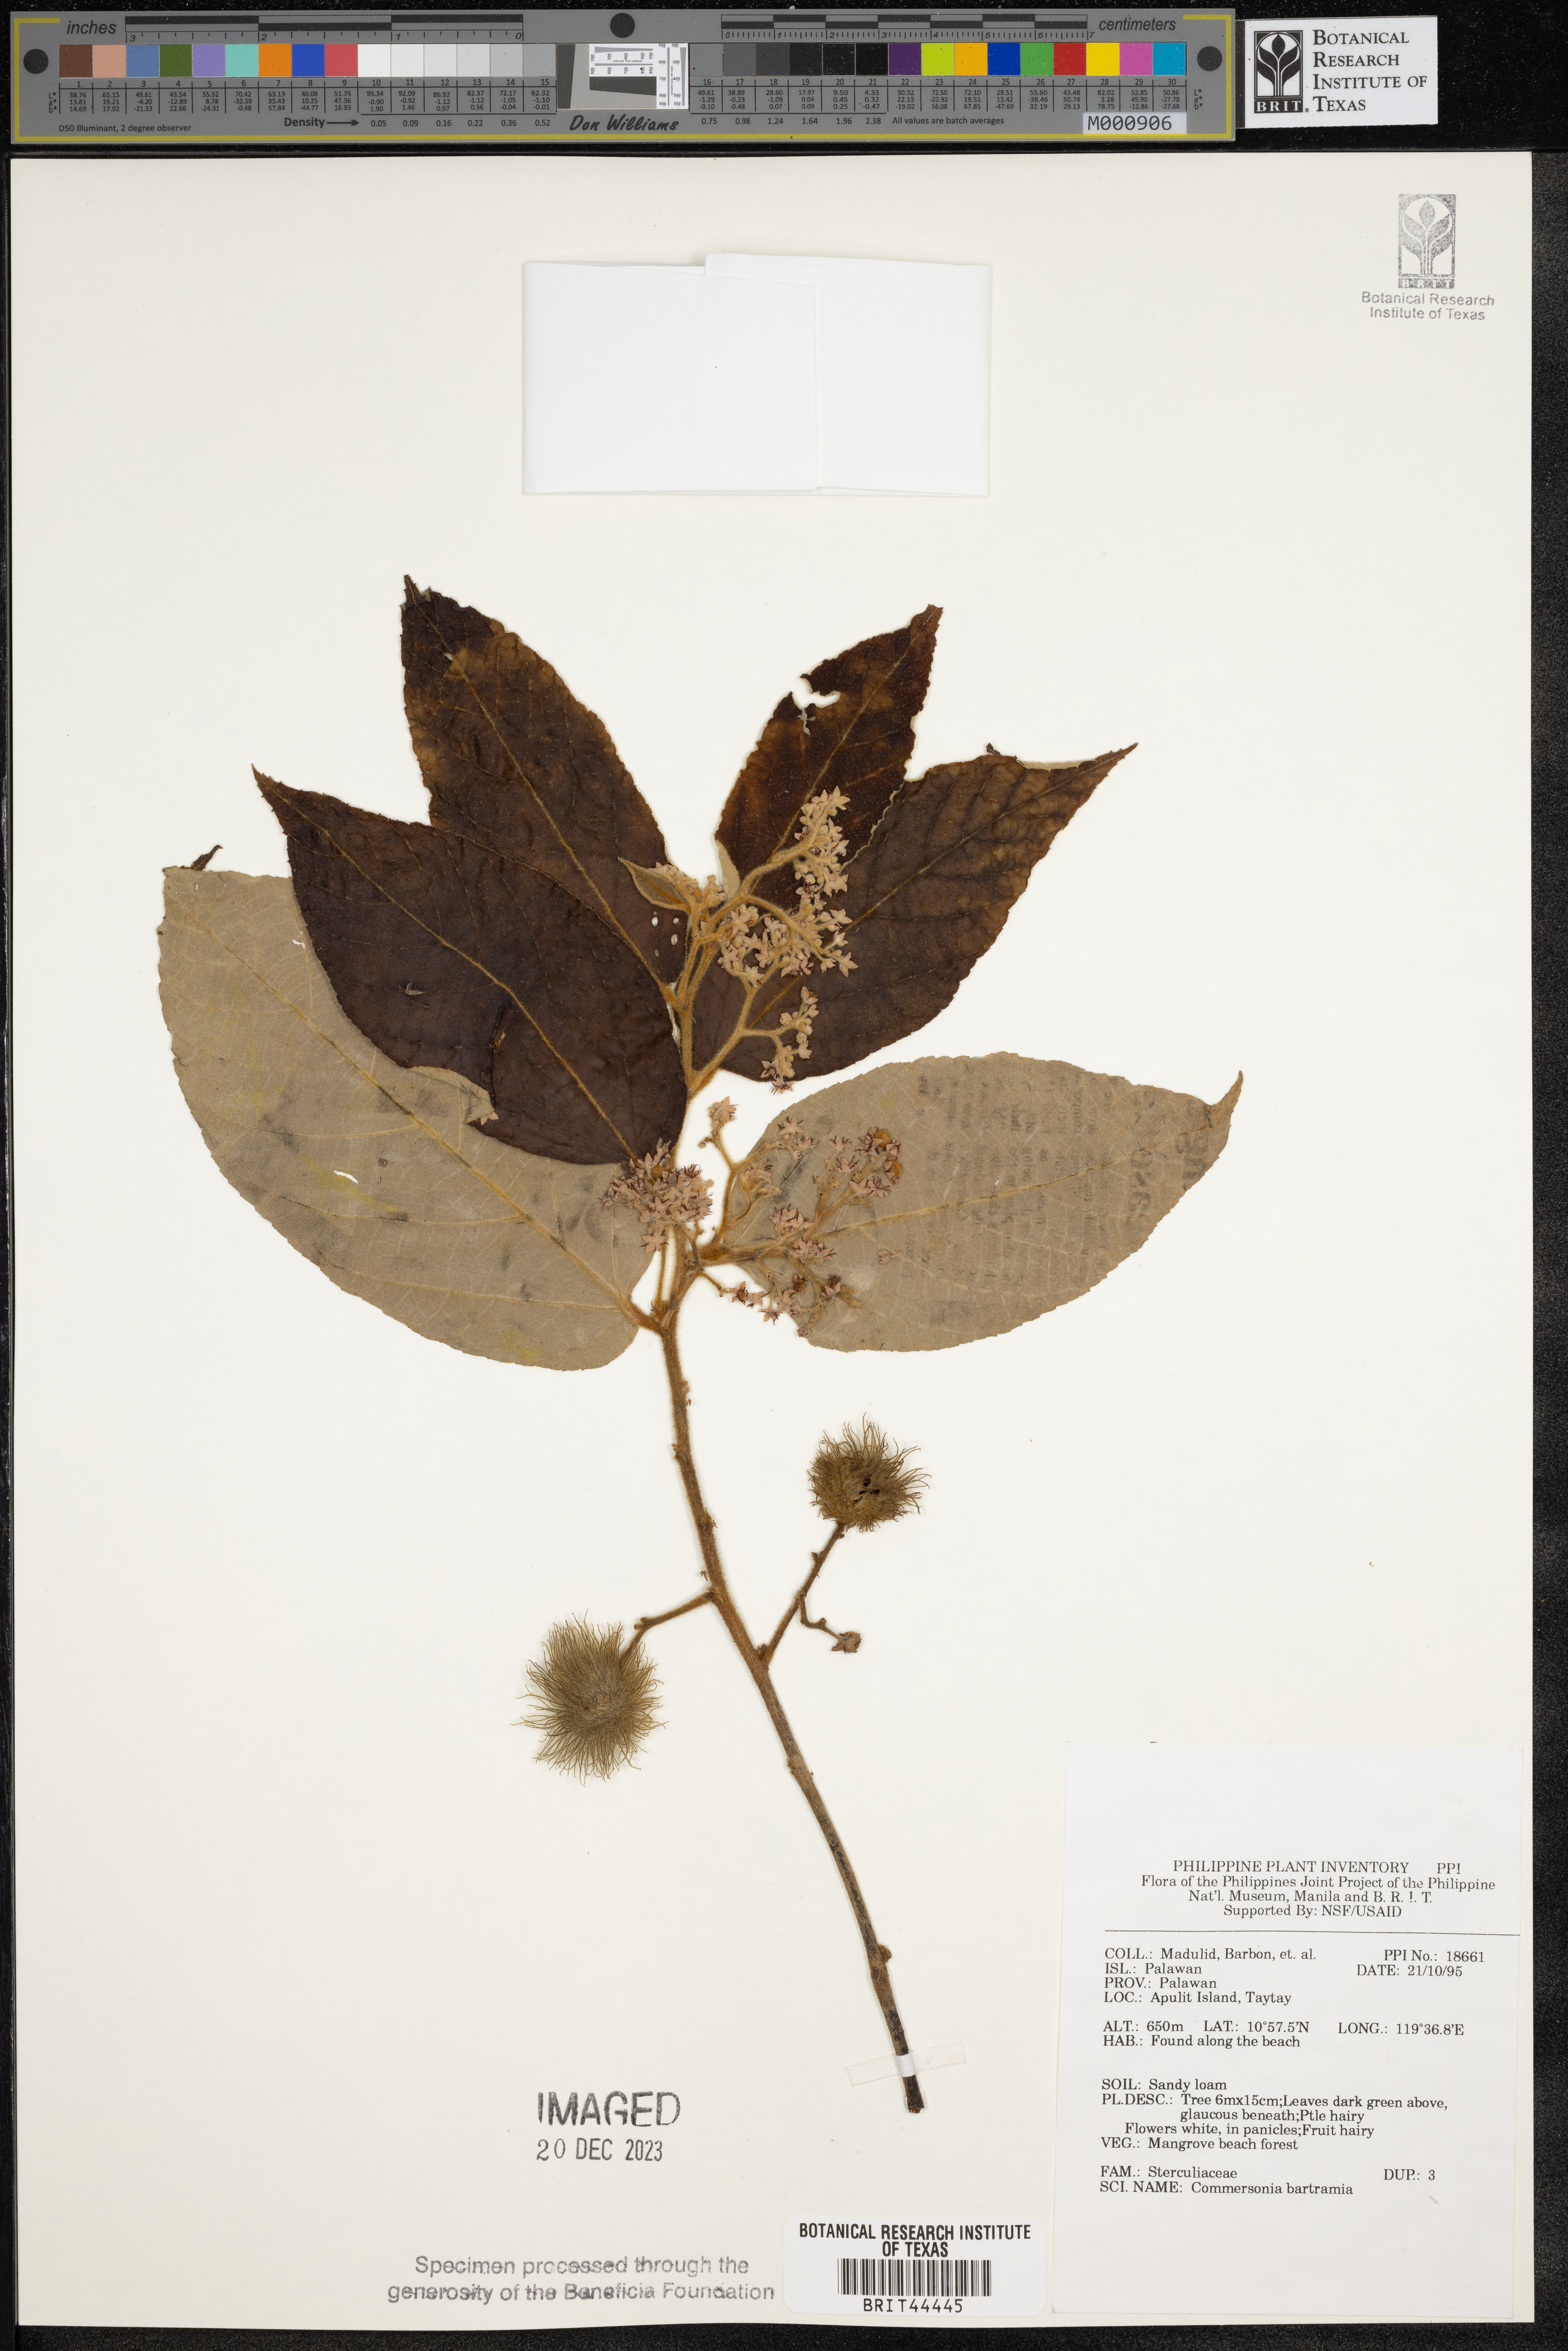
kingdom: Plantae
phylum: Tracheophyta
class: Magnoliopsida
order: Malvales
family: Malvaceae
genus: Commersonia
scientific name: Commersonia bartramia
